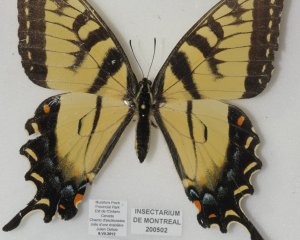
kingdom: Animalia
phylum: Arthropoda
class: Insecta
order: Lepidoptera
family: Papilionidae
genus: Pterourus
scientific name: Pterourus canadensis
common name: Canadian Tiger Swallowtail
